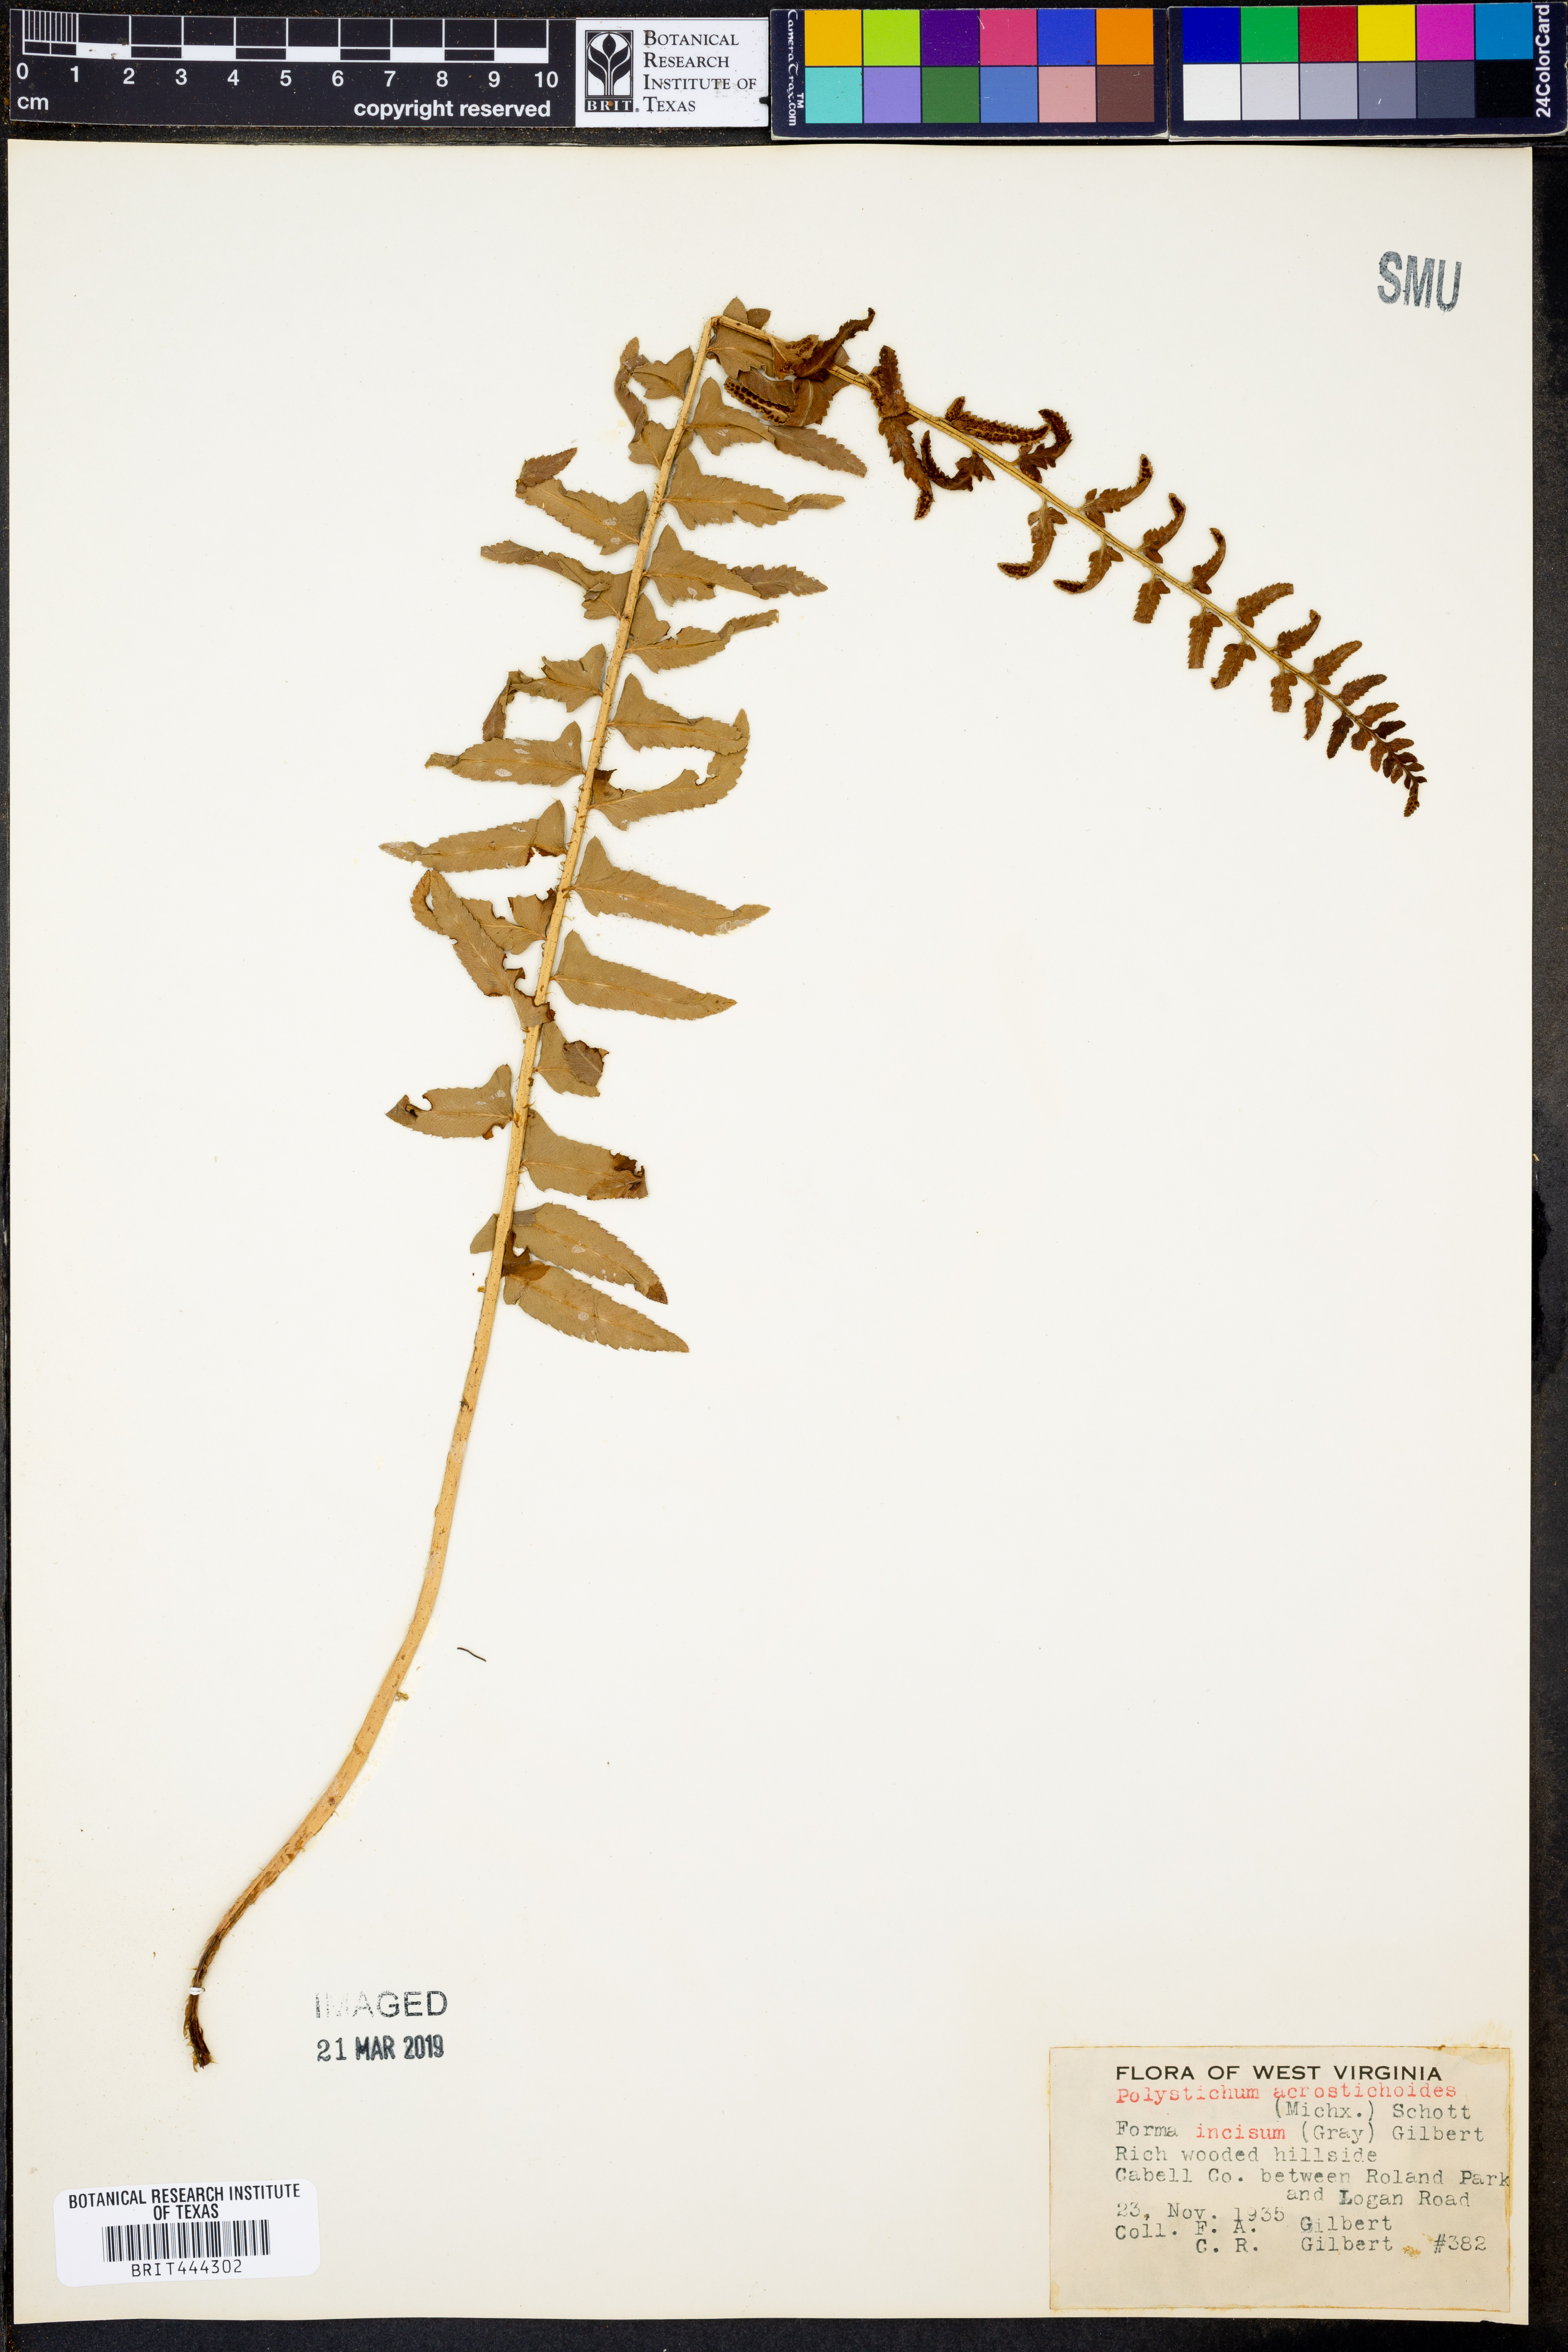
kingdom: Plantae
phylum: Tracheophyta
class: Polypodiopsida
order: Polypodiales
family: Dryopteridaceae
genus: Polystichum
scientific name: Polystichum acrostichoides
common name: Christmas fern
